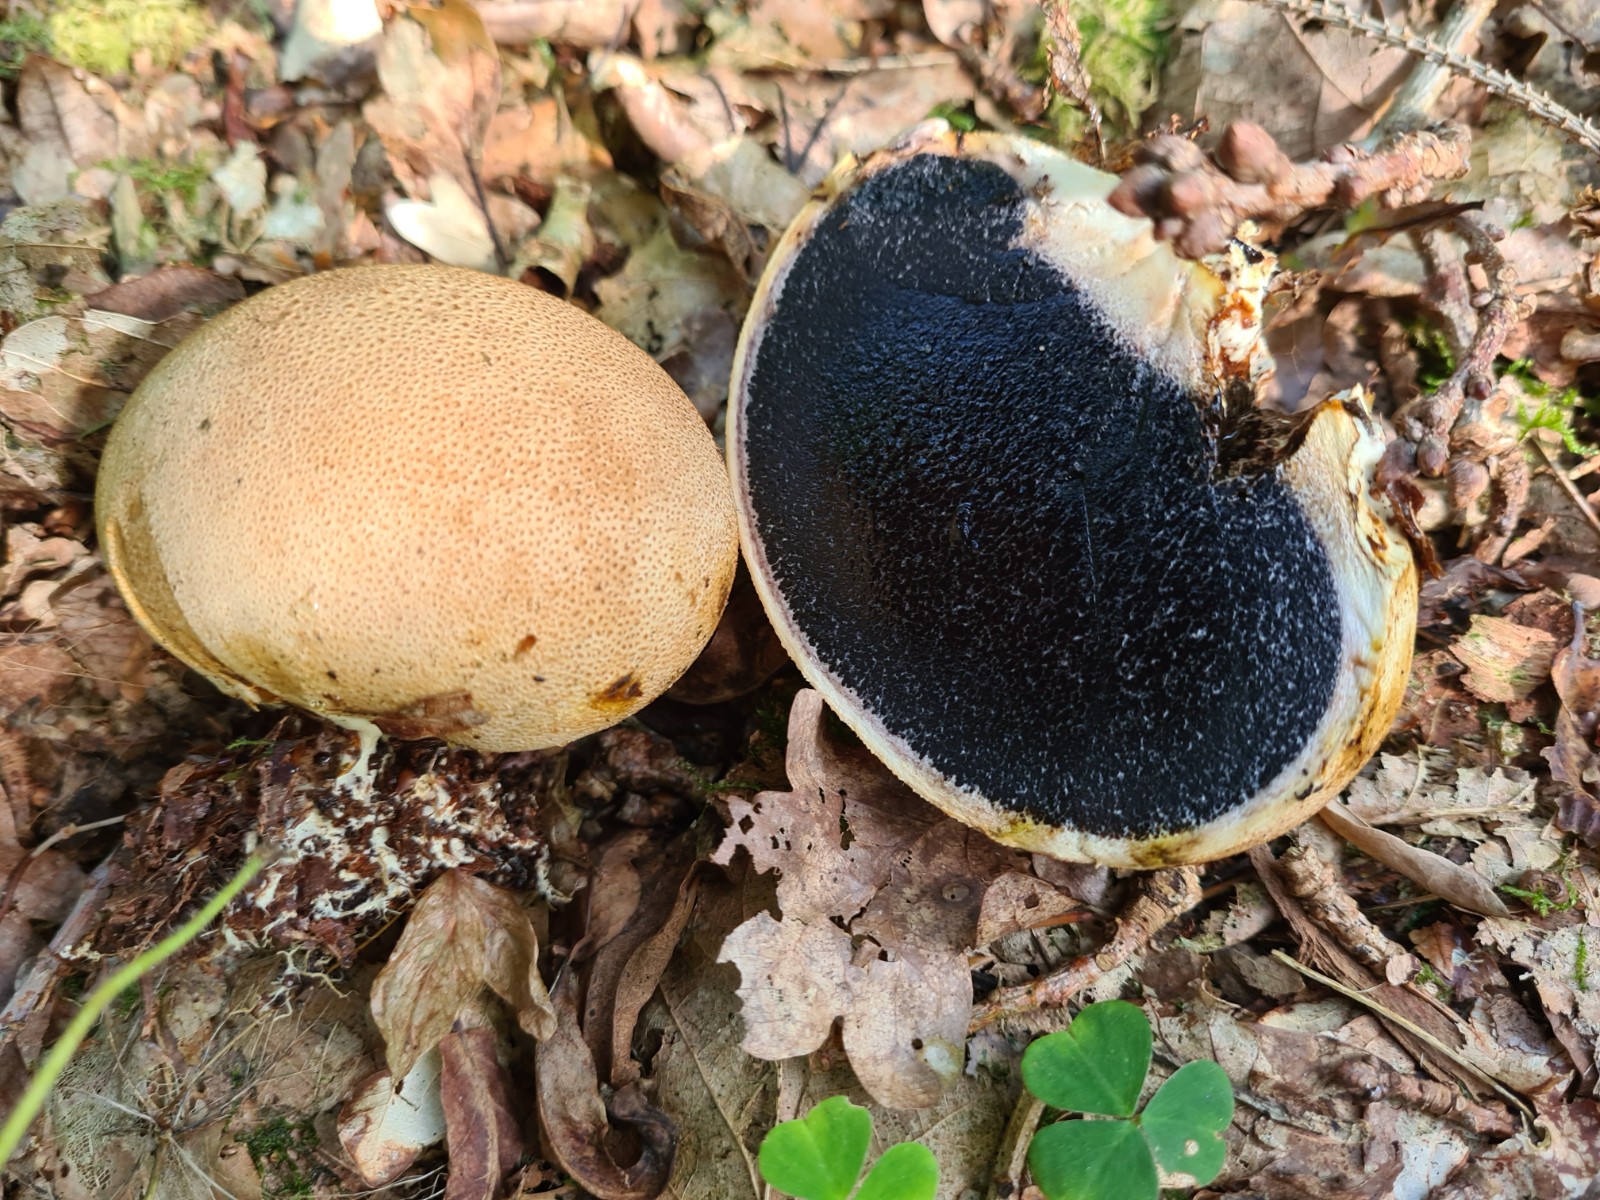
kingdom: Fungi
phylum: Basidiomycota
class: Agaricomycetes
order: Boletales
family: Sclerodermataceae
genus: Scleroderma
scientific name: Scleroderma citrinum
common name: almindelig bruskbold
